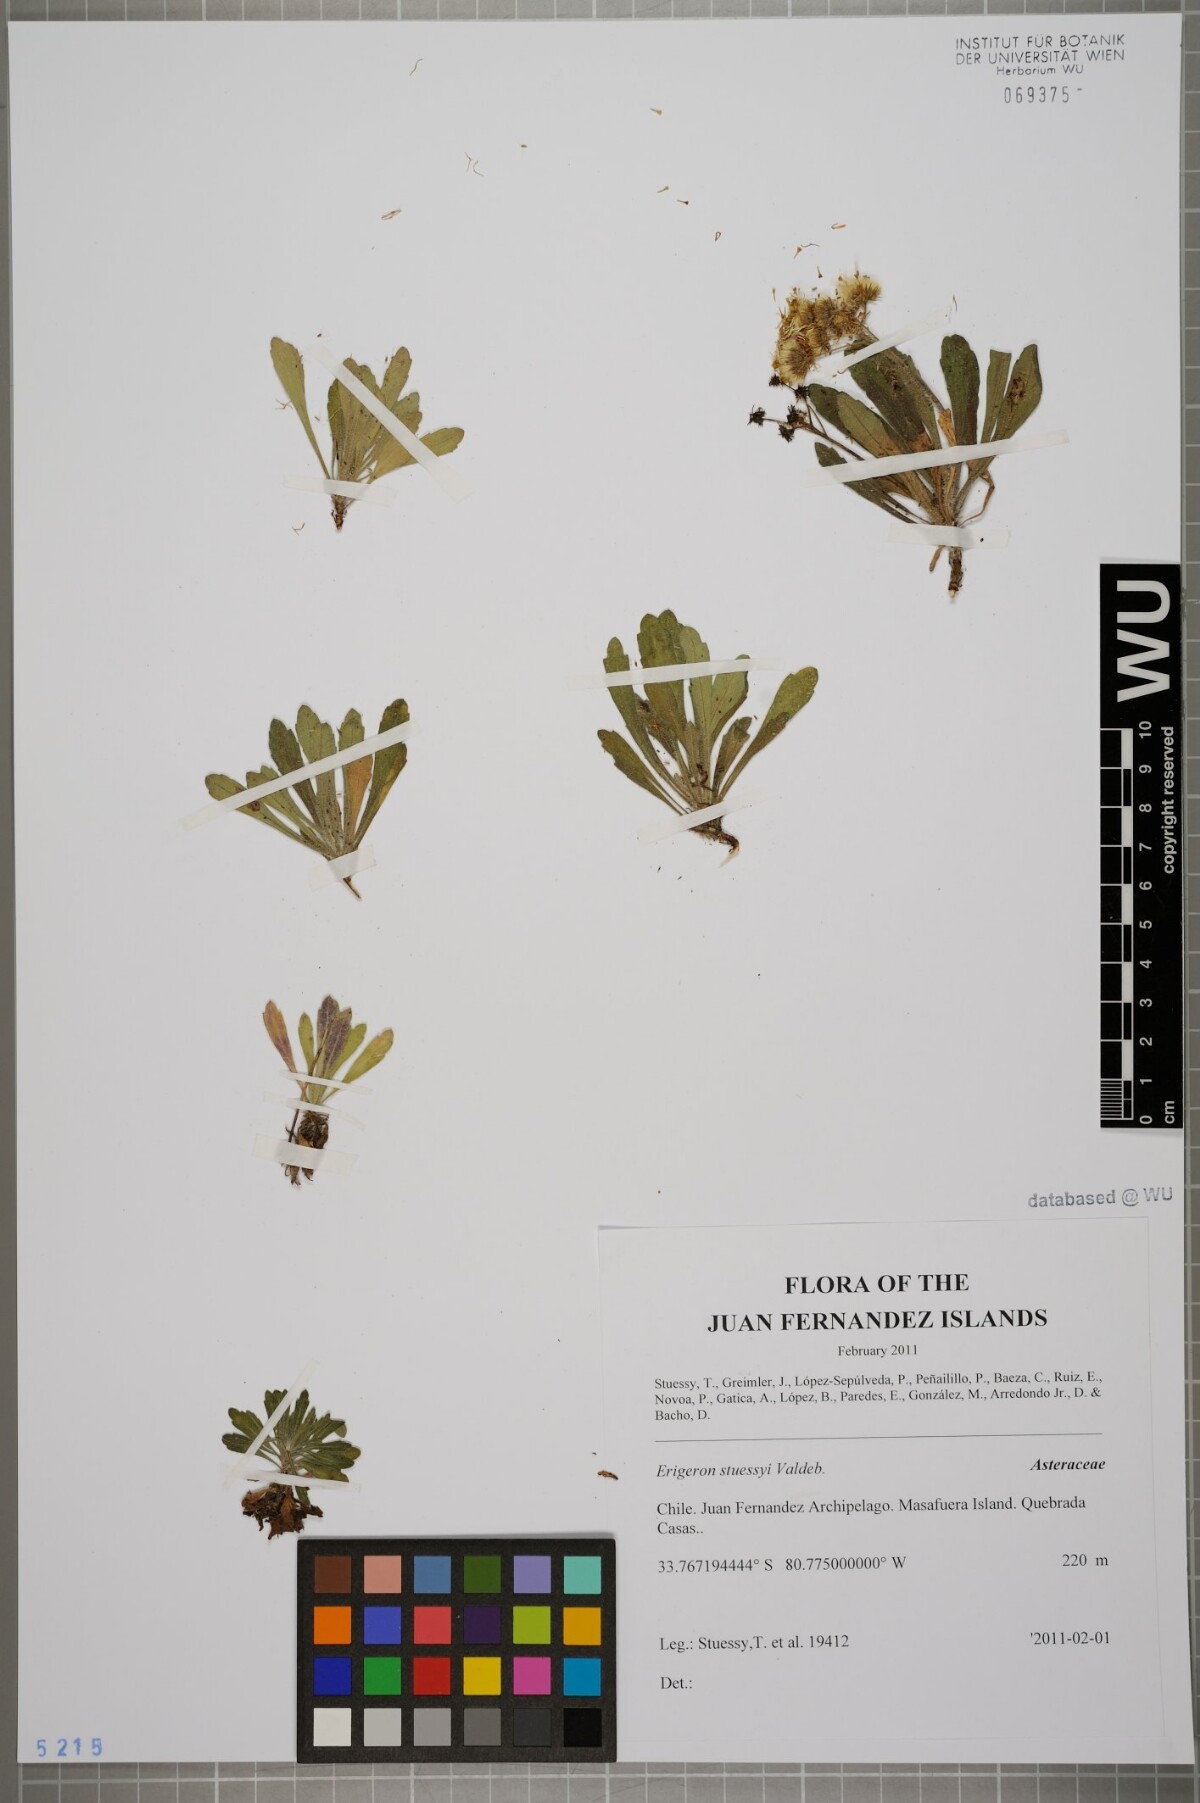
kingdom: Plantae
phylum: Tracheophyta
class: Magnoliopsida
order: Asterales
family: Asteraceae
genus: Erigeron
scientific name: Erigeron stuessyi
